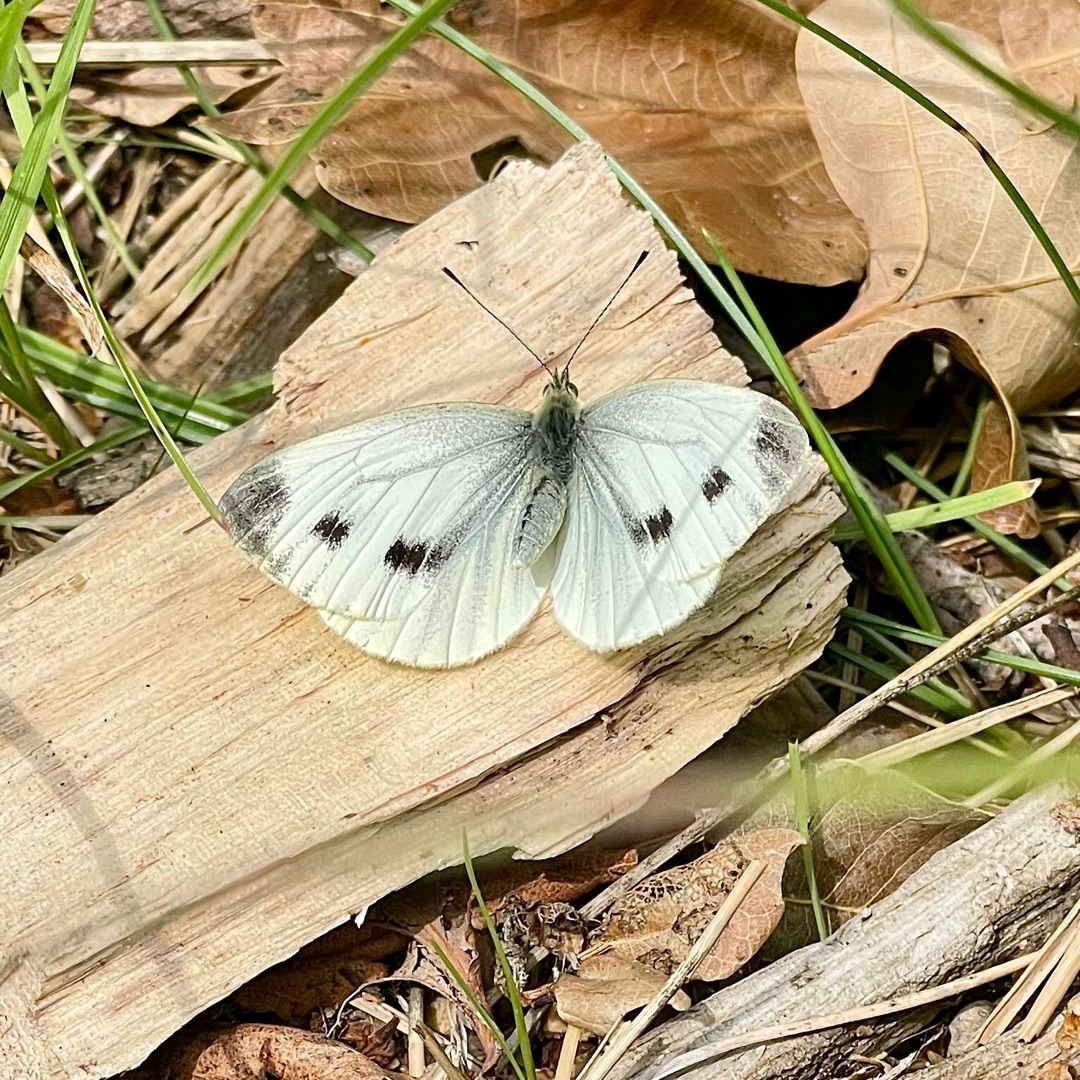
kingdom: Animalia
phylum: Arthropoda
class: Insecta
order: Lepidoptera
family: Pieridae
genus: Pieris
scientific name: Pieris napi
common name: Grønåret kålsommerfugl
